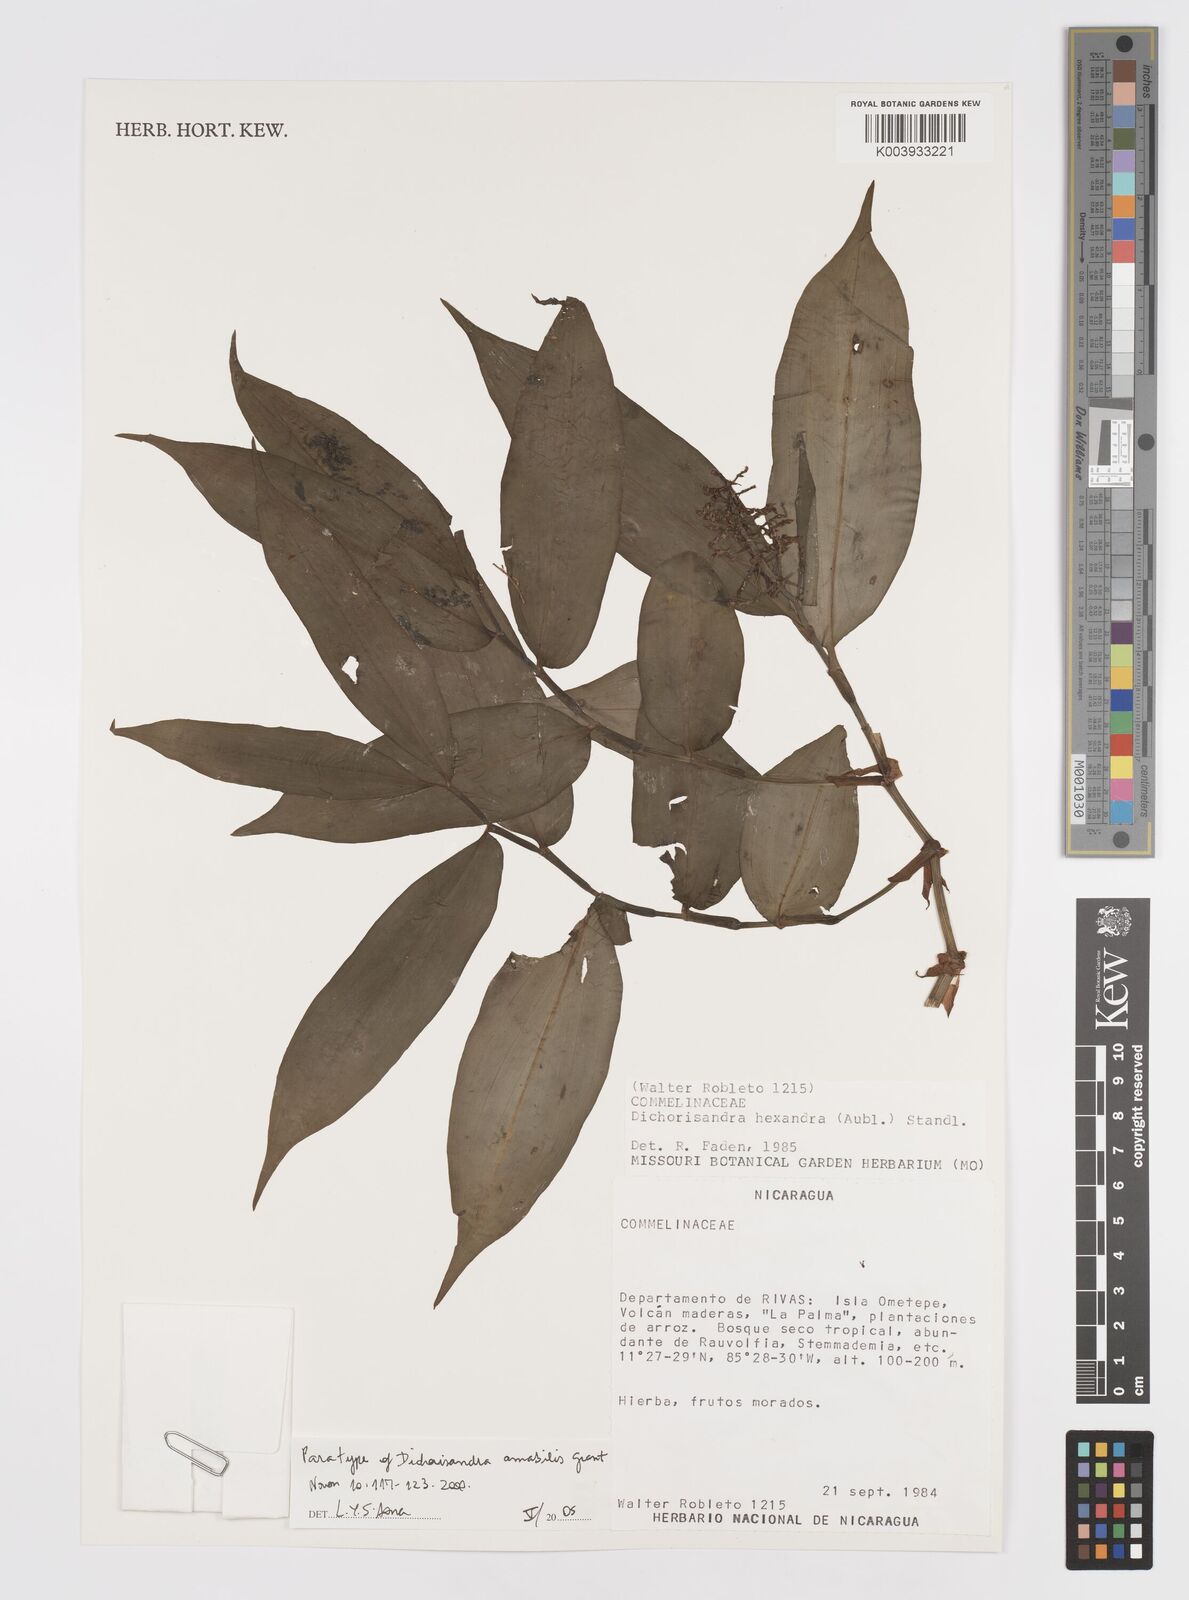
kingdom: Plantae
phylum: Tracheophyta
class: Liliopsida
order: Commelinales
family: Commelinaceae
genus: Dichorisandra
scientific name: Dichorisandra amabilis
